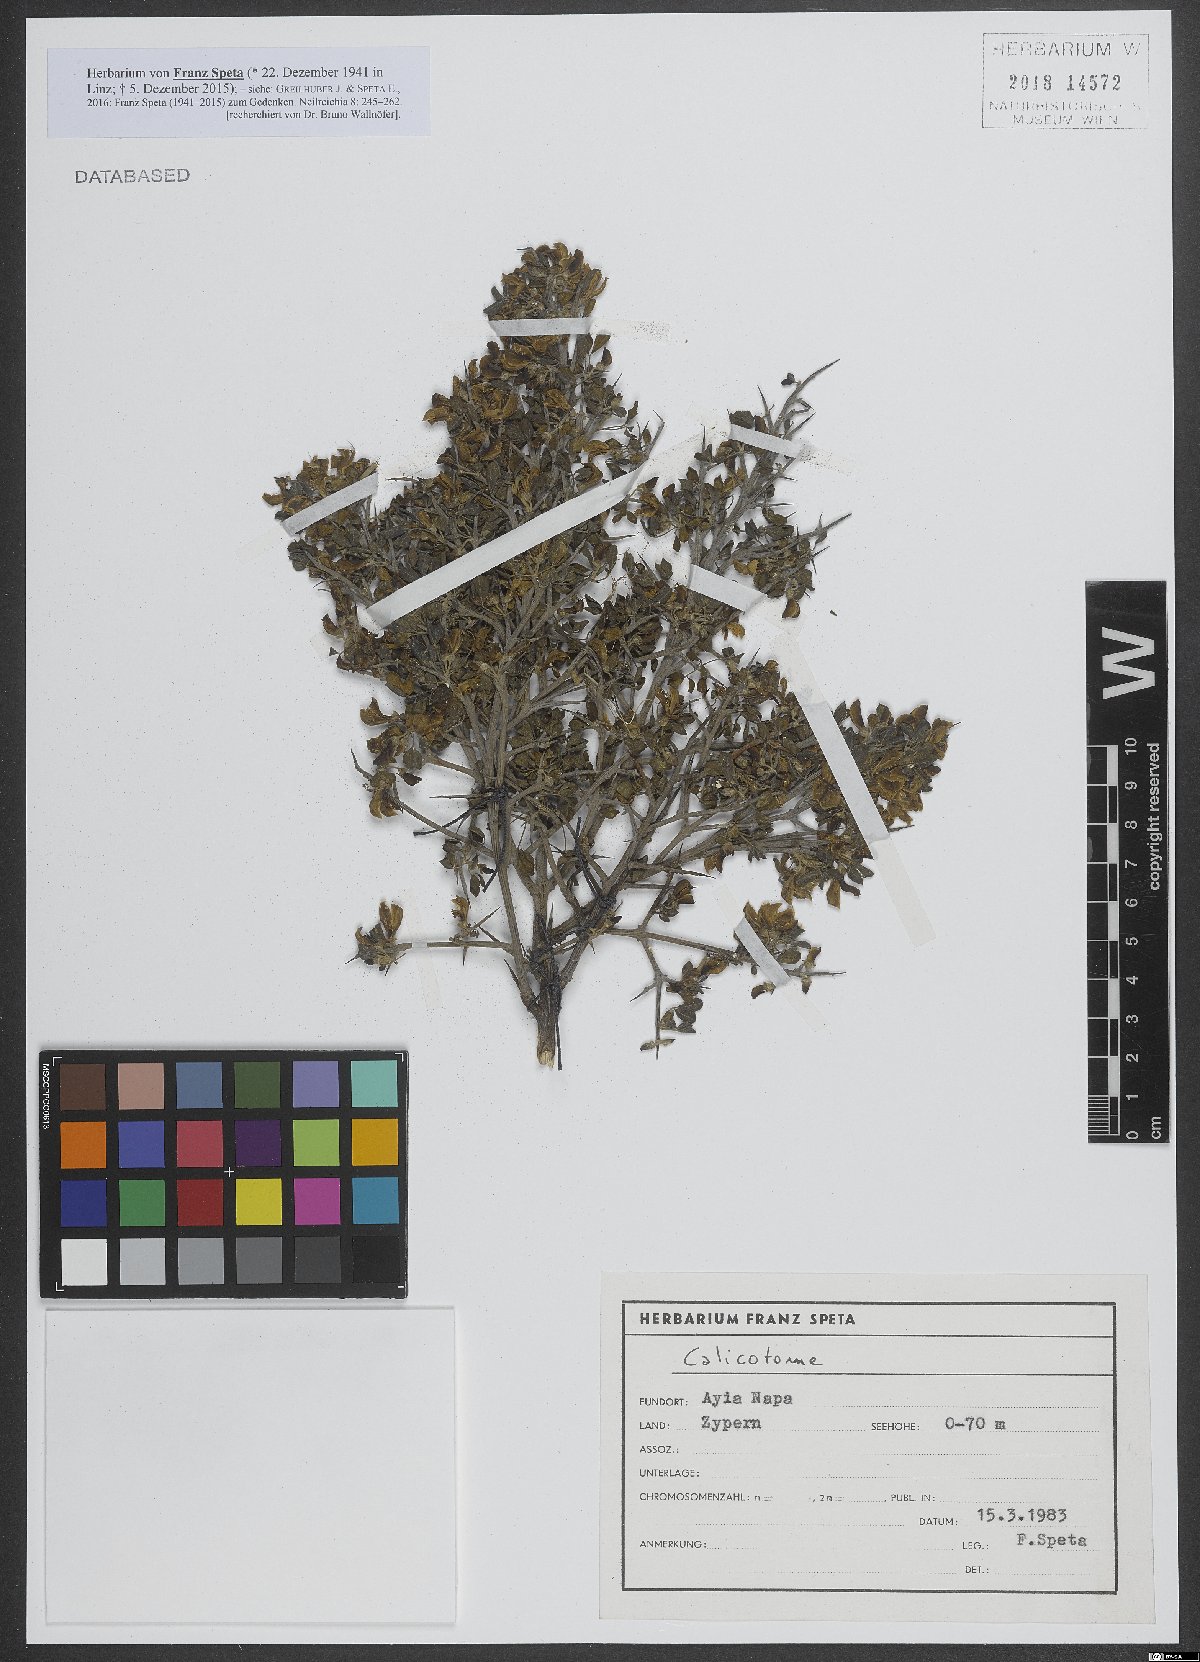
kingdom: Plantae
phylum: Tracheophyta
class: Magnoliopsida
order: Fabales
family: Fabaceae
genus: Calicotome
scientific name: Calicotome
